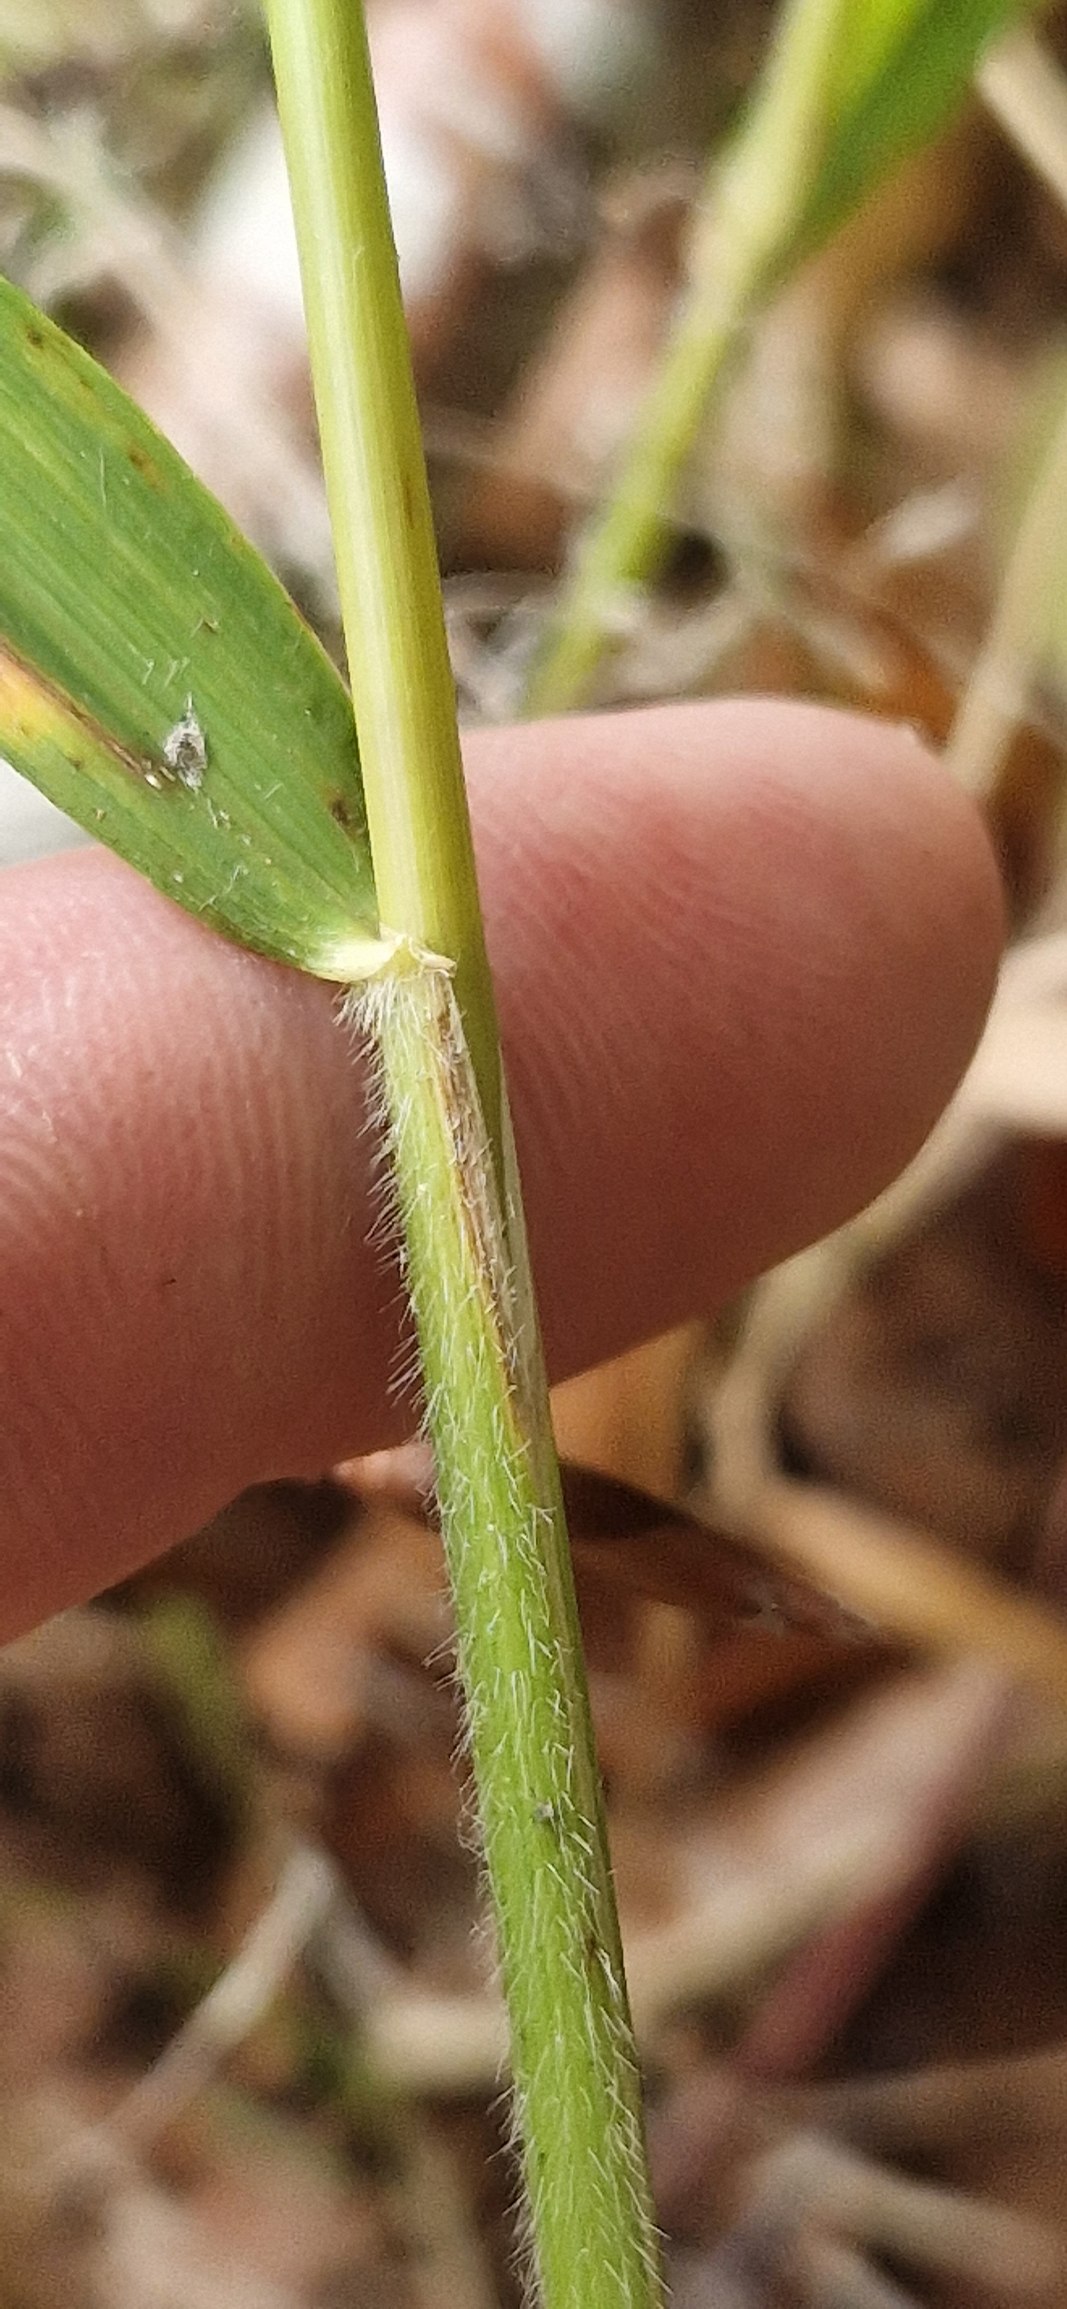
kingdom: Plantae
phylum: Tracheophyta
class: Liliopsida
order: Poales
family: Poaceae
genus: Hordelymus
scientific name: Hordelymus europaeus
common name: Skovbyg
